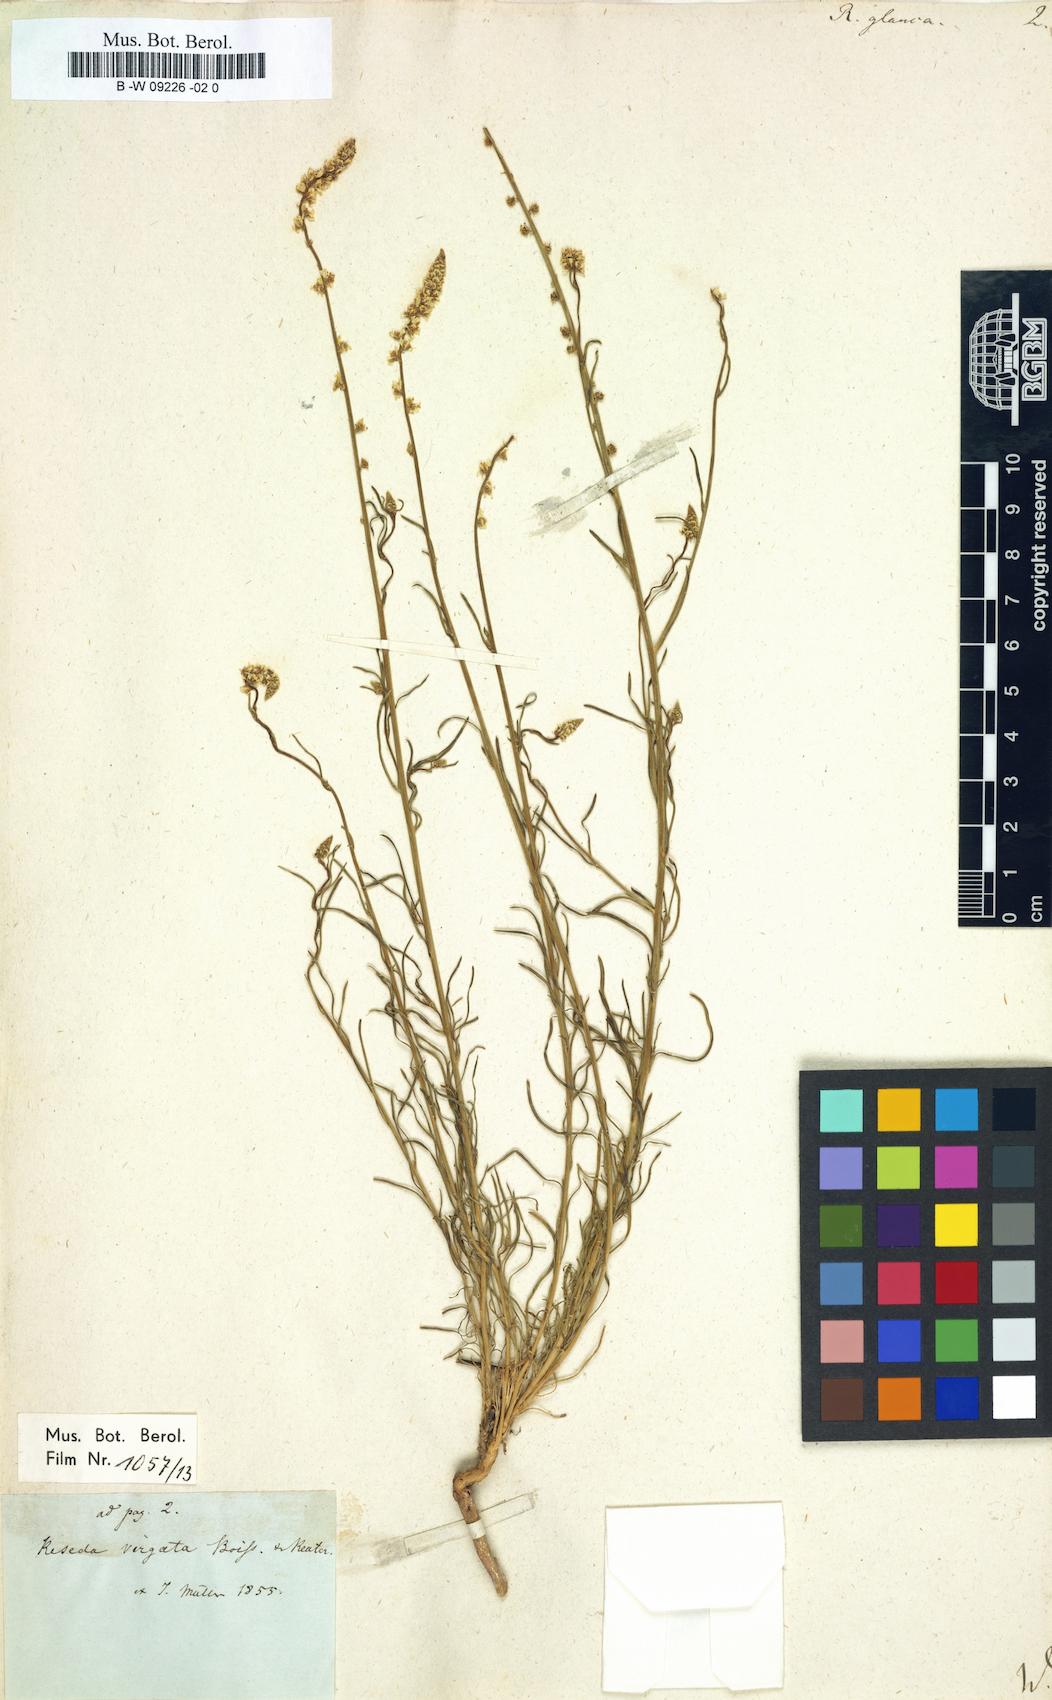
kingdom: Plantae
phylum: Tracheophyta
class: Magnoliopsida
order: Brassicales
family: Resedaceae
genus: Reseda
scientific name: Reseda glauca
